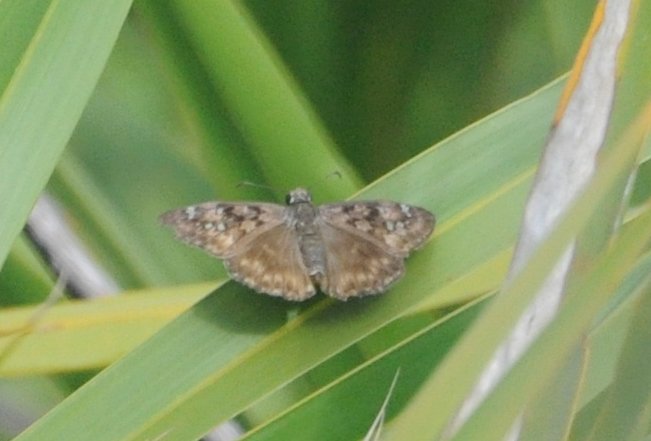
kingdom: Animalia
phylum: Arthropoda
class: Insecta
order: Lepidoptera
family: Hesperiidae
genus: Gesta
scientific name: Gesta
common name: Horace's Duskywing
